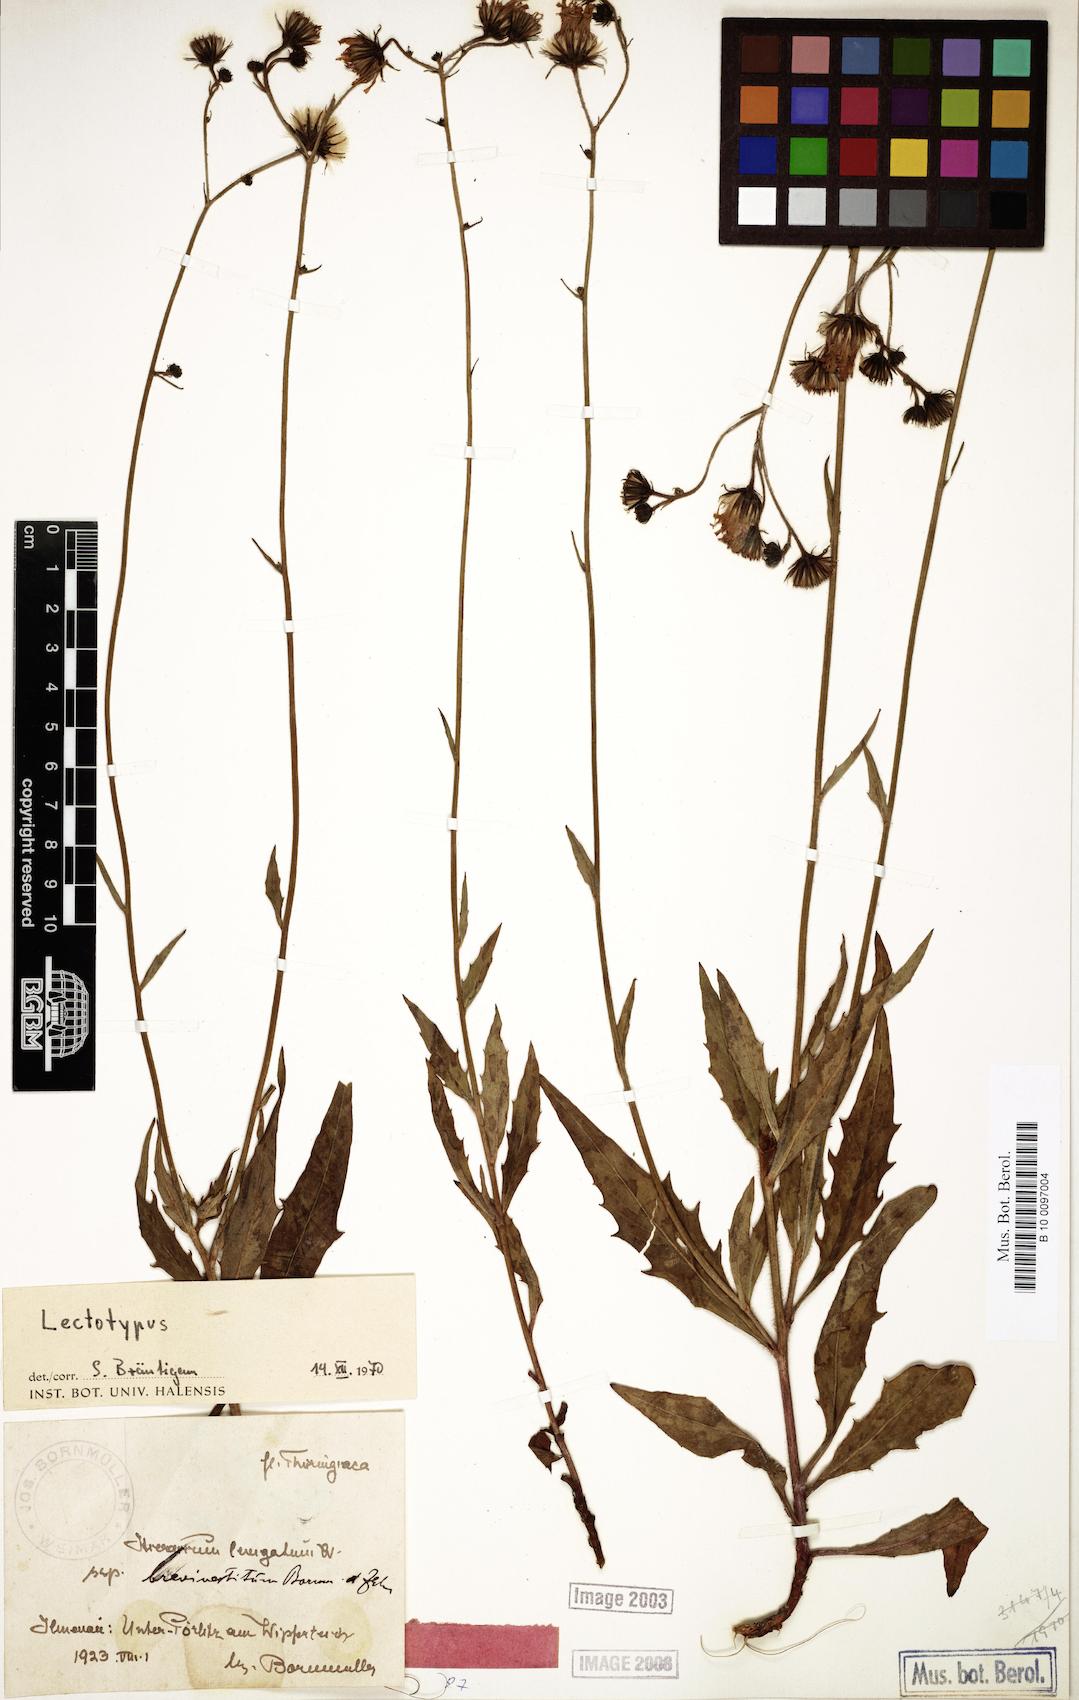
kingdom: Plantae
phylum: Tracheophyta
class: Magnoliopsida
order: Asterales
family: Asteraceae
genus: Hieracium
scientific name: Hieracium laevigatum
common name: Smooth hawkweed
